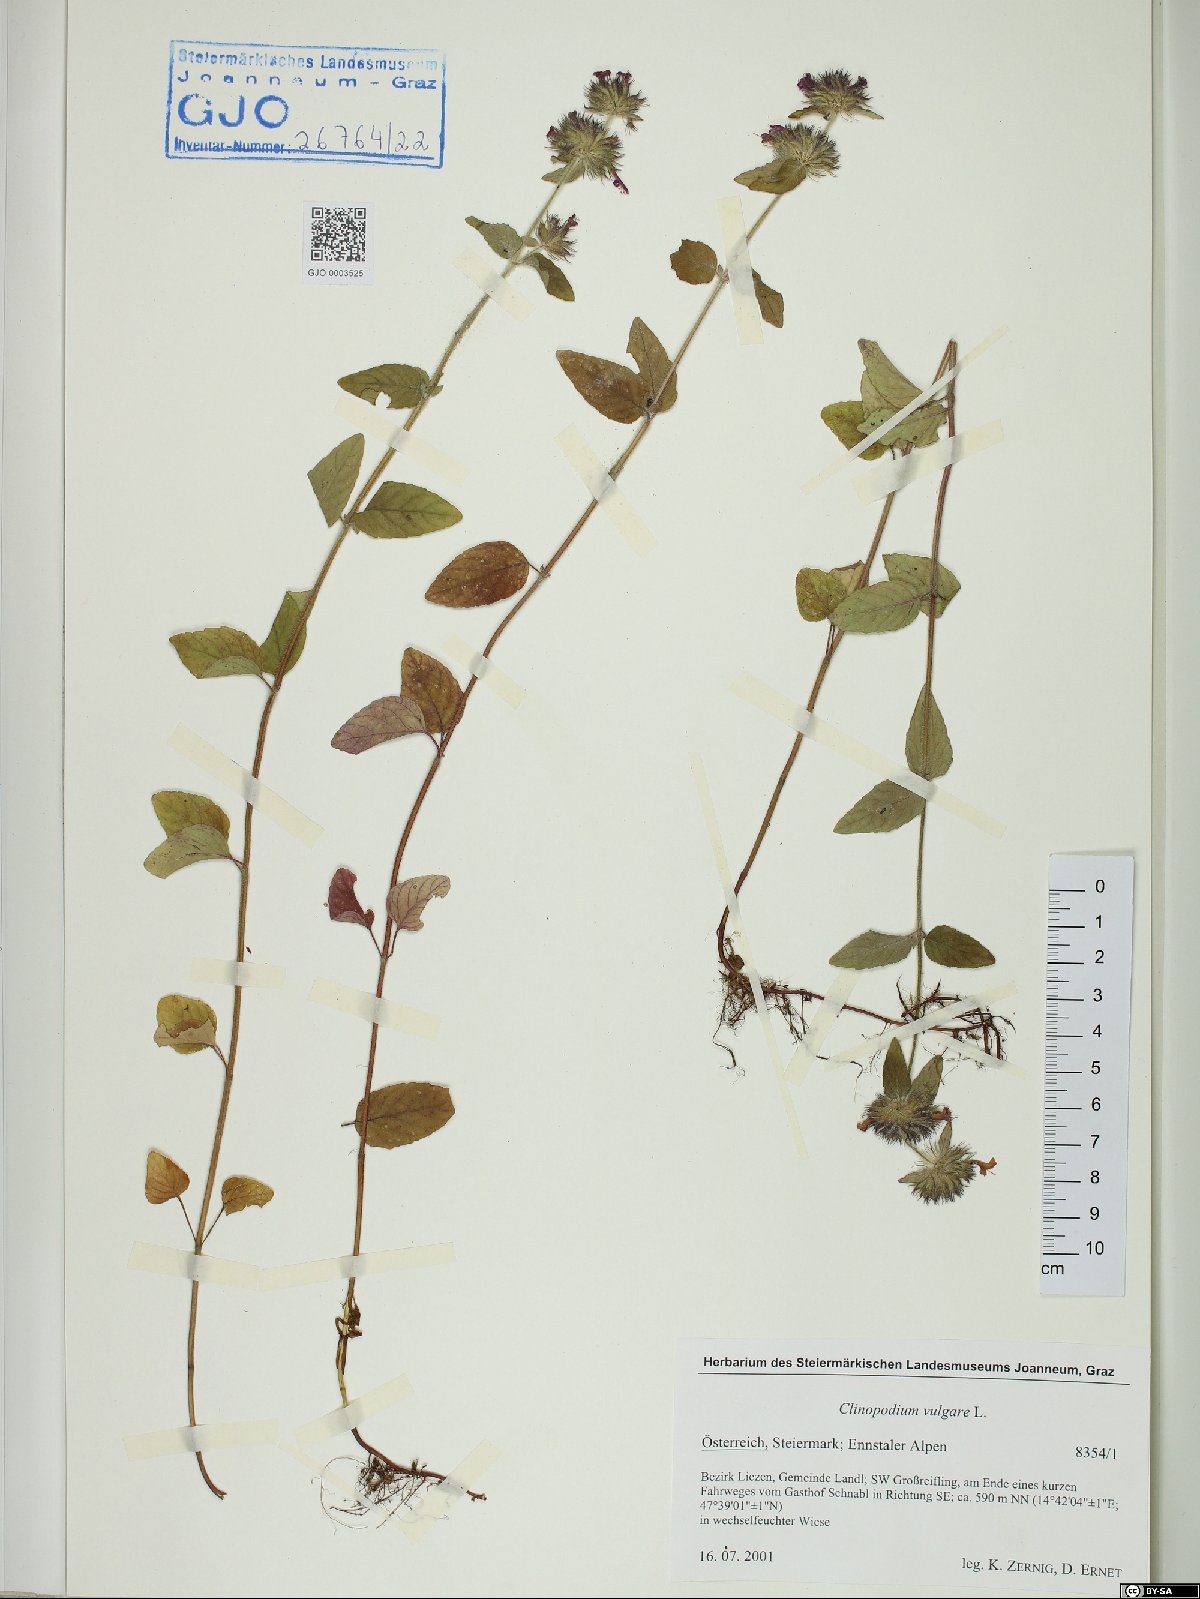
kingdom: Plantae
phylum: Tracheophyta
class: Magnoliopsida
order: Lamiales
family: Lamiaceae
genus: Clinopodium
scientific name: Clinopodium vulgare
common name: Wild basil
